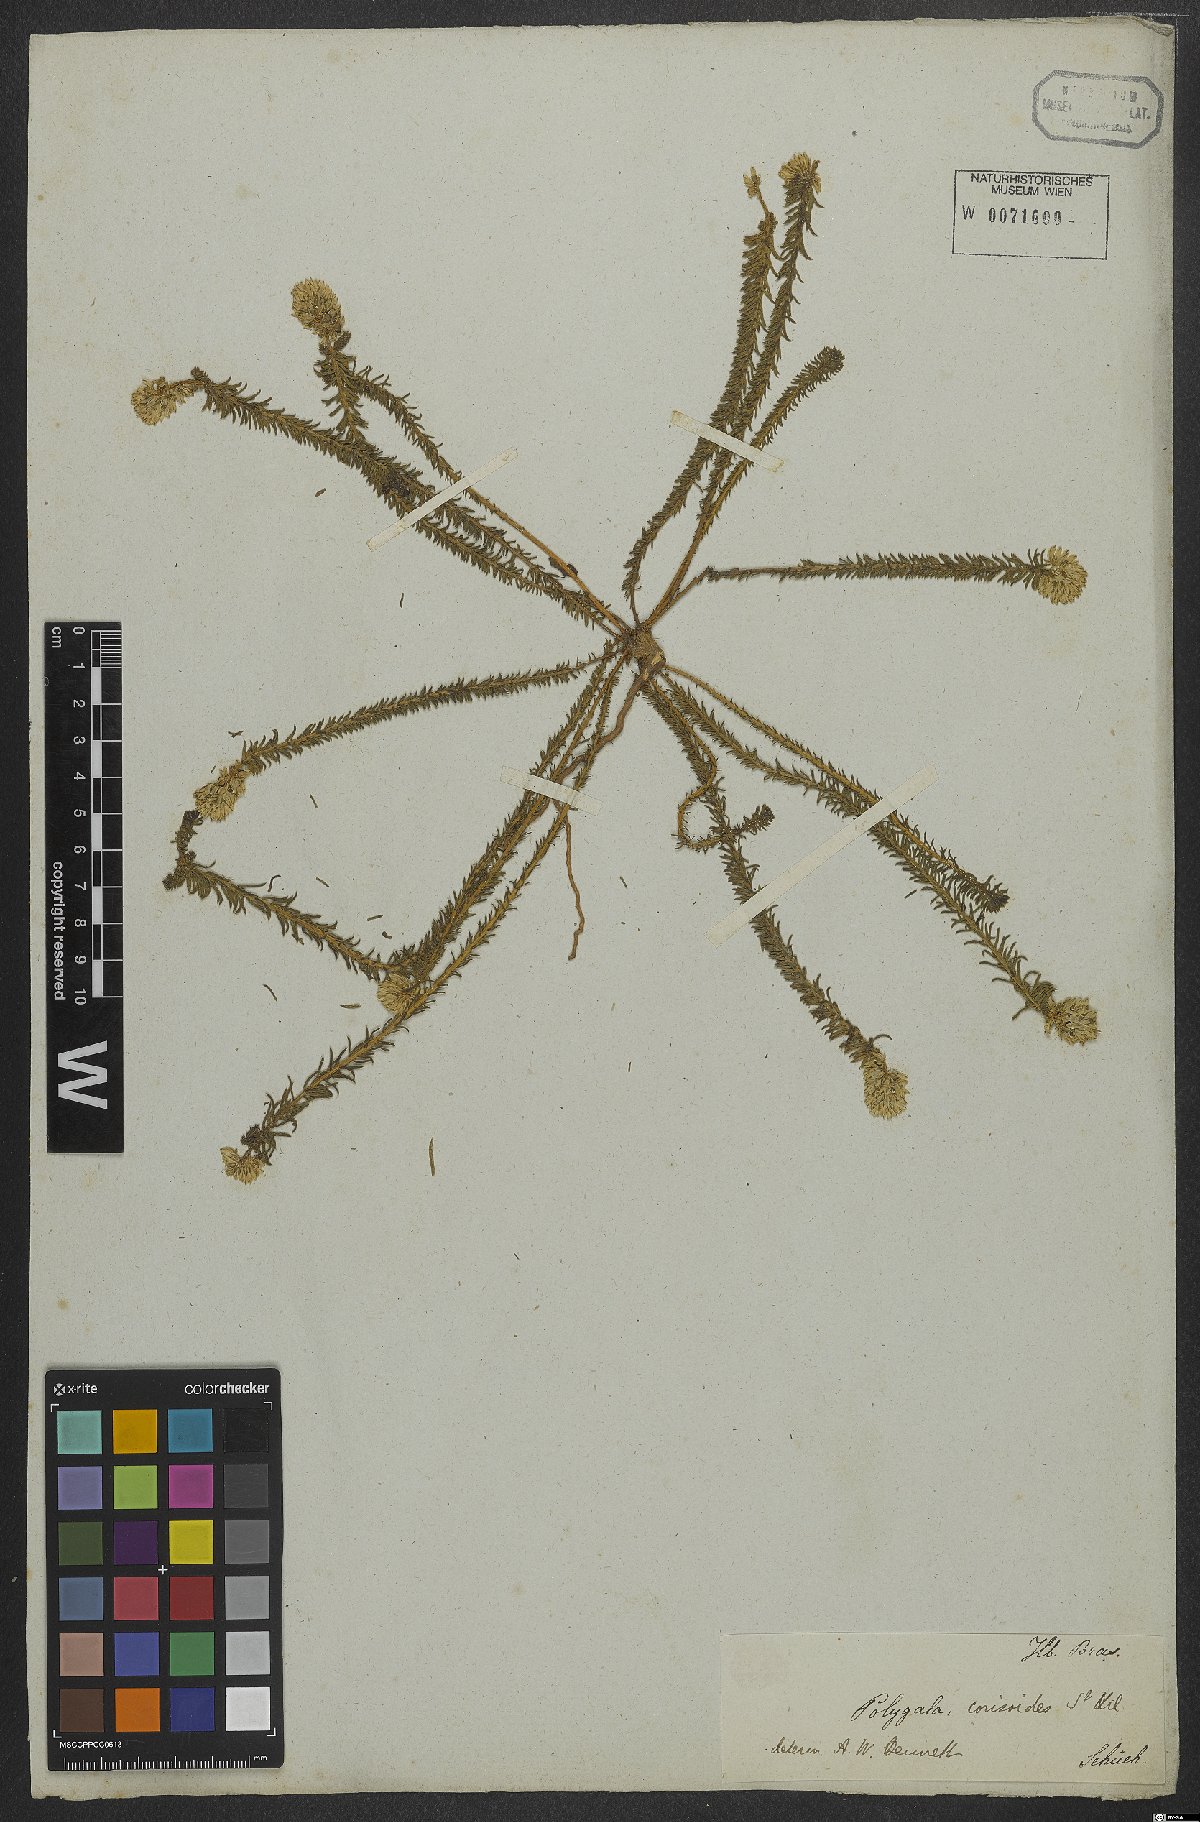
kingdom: Plantae
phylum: Tracheophyta
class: Magnoliopsida
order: Fabales
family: Polygalaceae
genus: Polygala
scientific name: Polygala cyparissias
